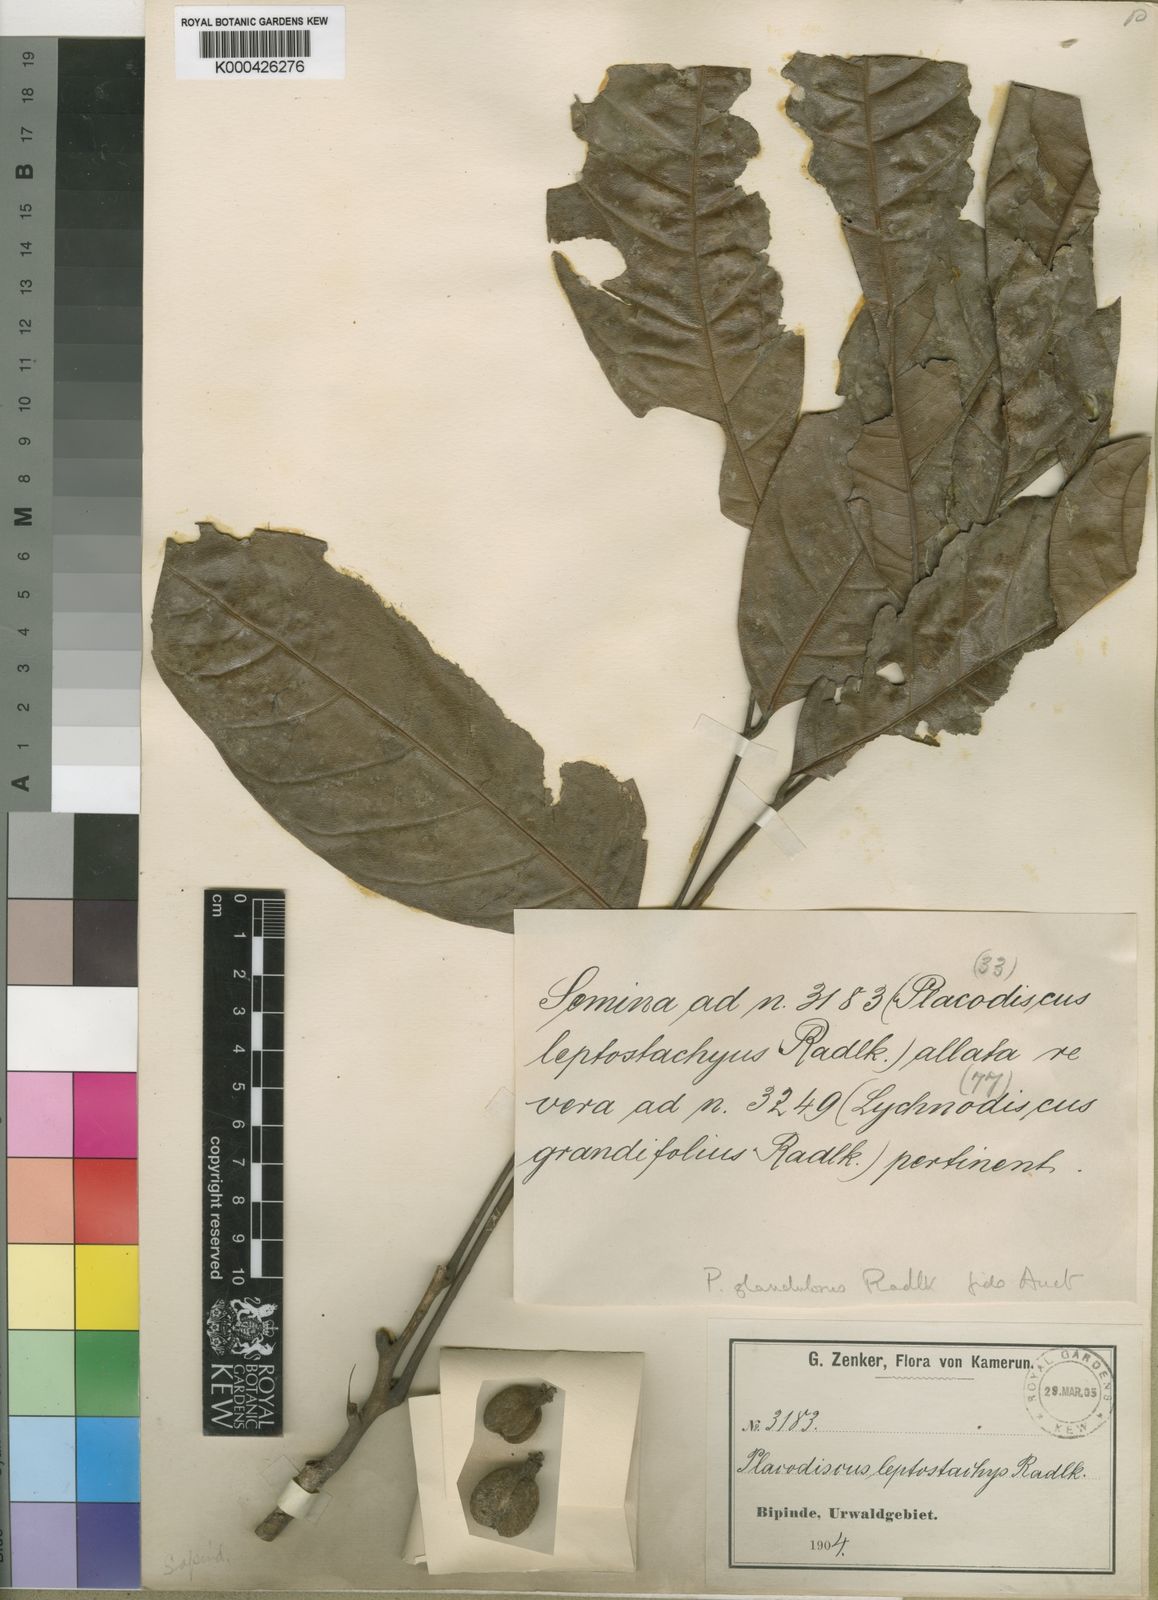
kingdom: Plantae
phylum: Tracheophyta
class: Magnoliopsida
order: Sapindales
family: Sapindaceae
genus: Placodiscus
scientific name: Placodiscus glandulosus
